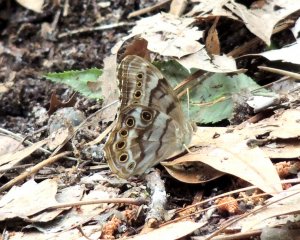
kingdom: Animalia
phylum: Arthropoda
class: Insecta
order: Lepidoptera
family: Nymphalidae
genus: Enodia
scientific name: Enodia portlandia
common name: Southern Pearly Eye
